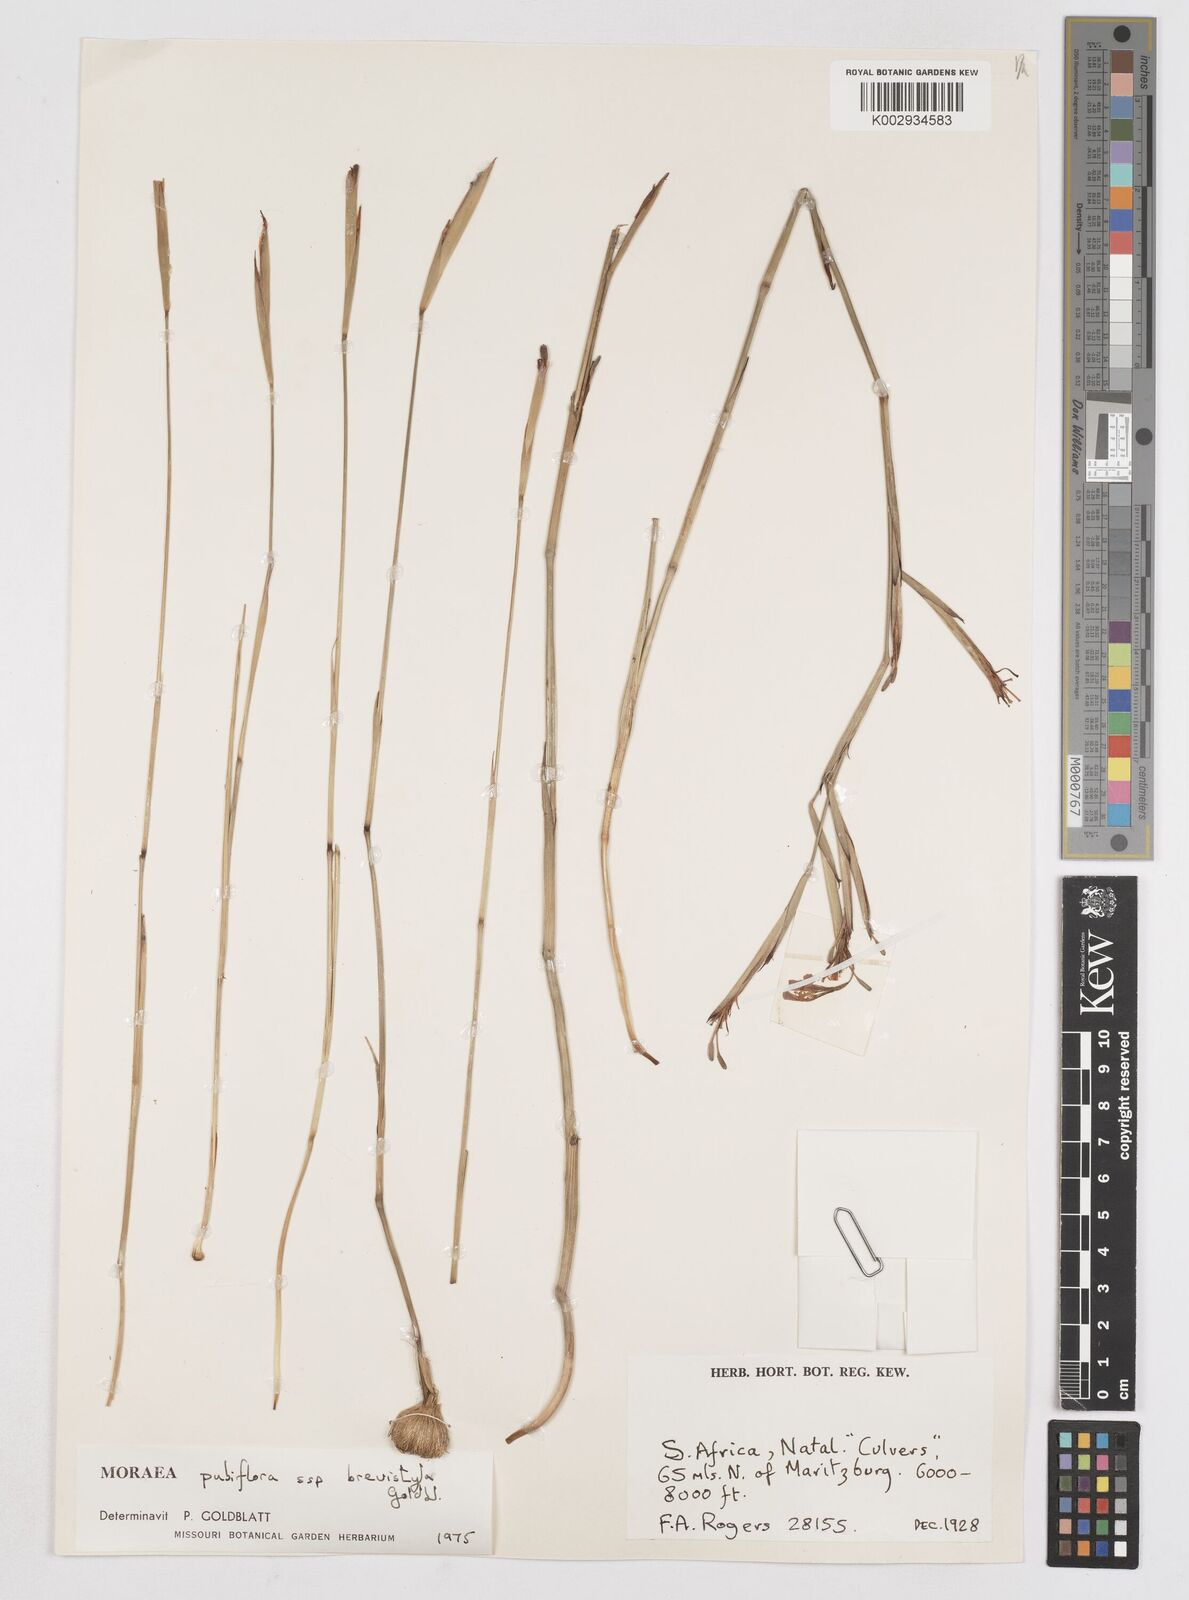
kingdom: Plantae
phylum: Tracheophyta
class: Liliopsida
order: Asparagales
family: Iridaceae
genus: Moraea
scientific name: Moraea brevistyla
